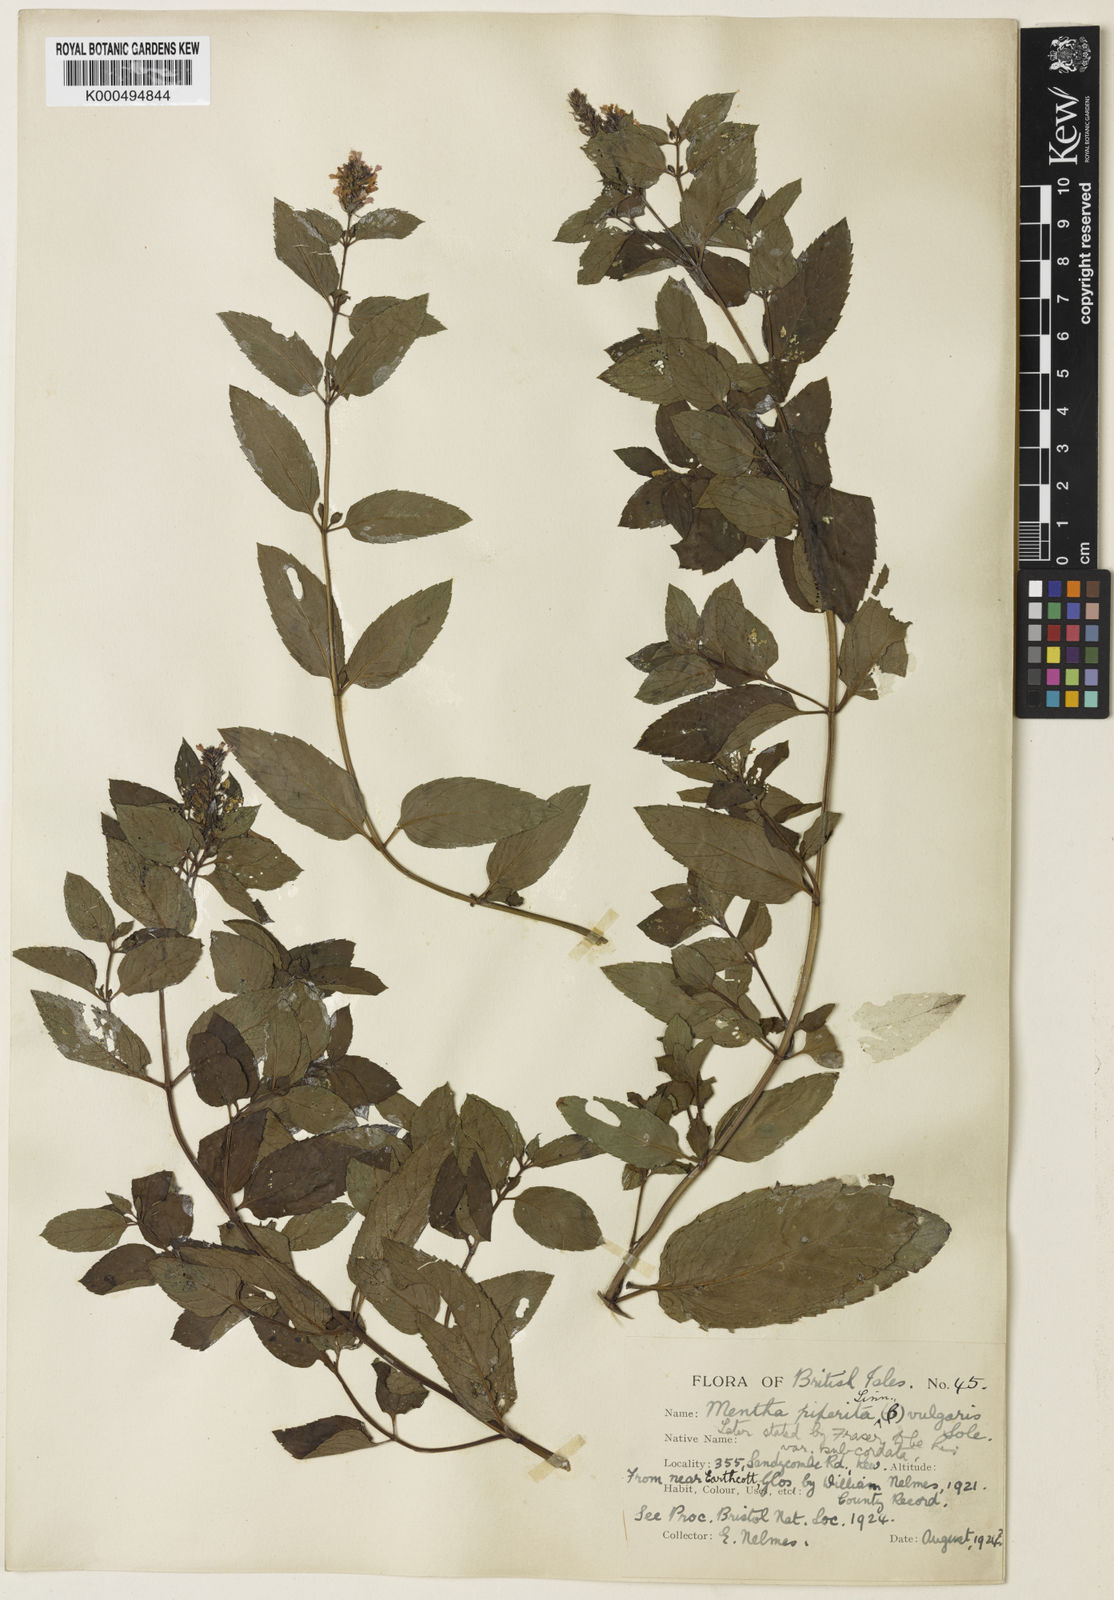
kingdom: Plantae
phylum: Tracheophyta
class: Magnoliopsida
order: Lamiales
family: Lamiaceae
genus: Mentha
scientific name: Mentha piperita
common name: Peppermint
